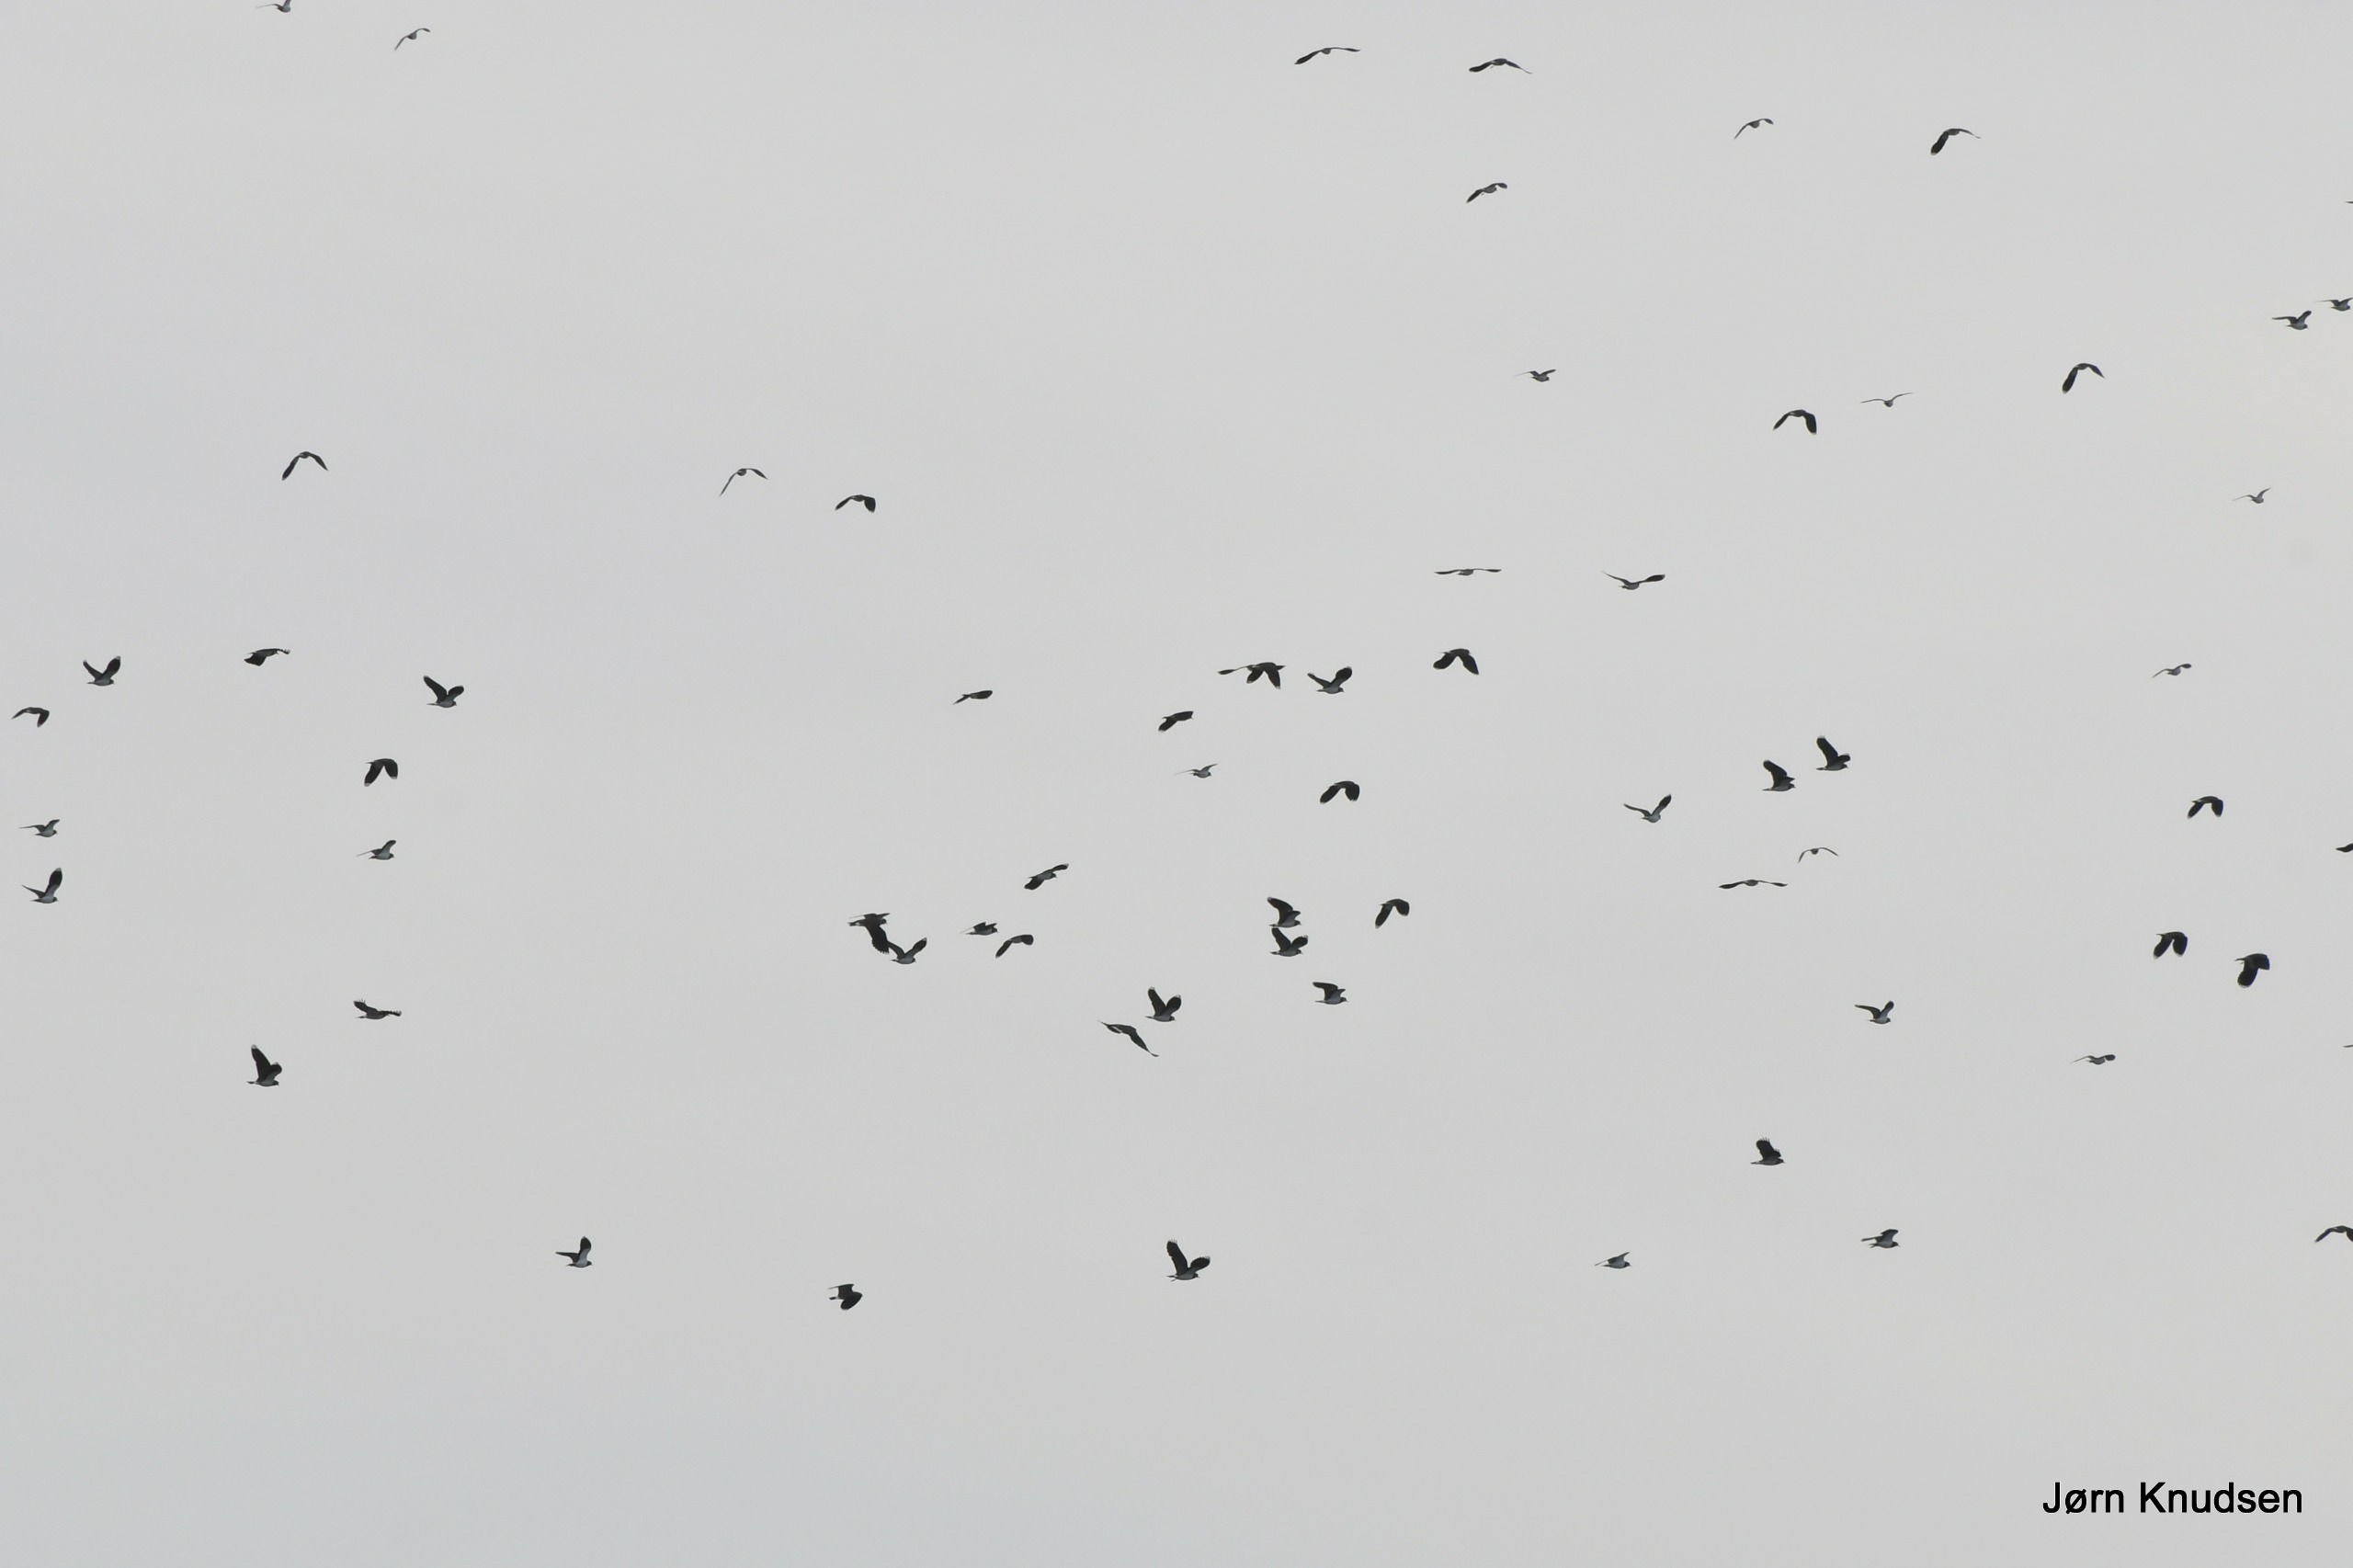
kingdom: Animalia
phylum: Chordata
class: Aves
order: Charadriiformes
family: Charadriidae
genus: Vanellus
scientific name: Vanellus vanellus
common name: Vibe
